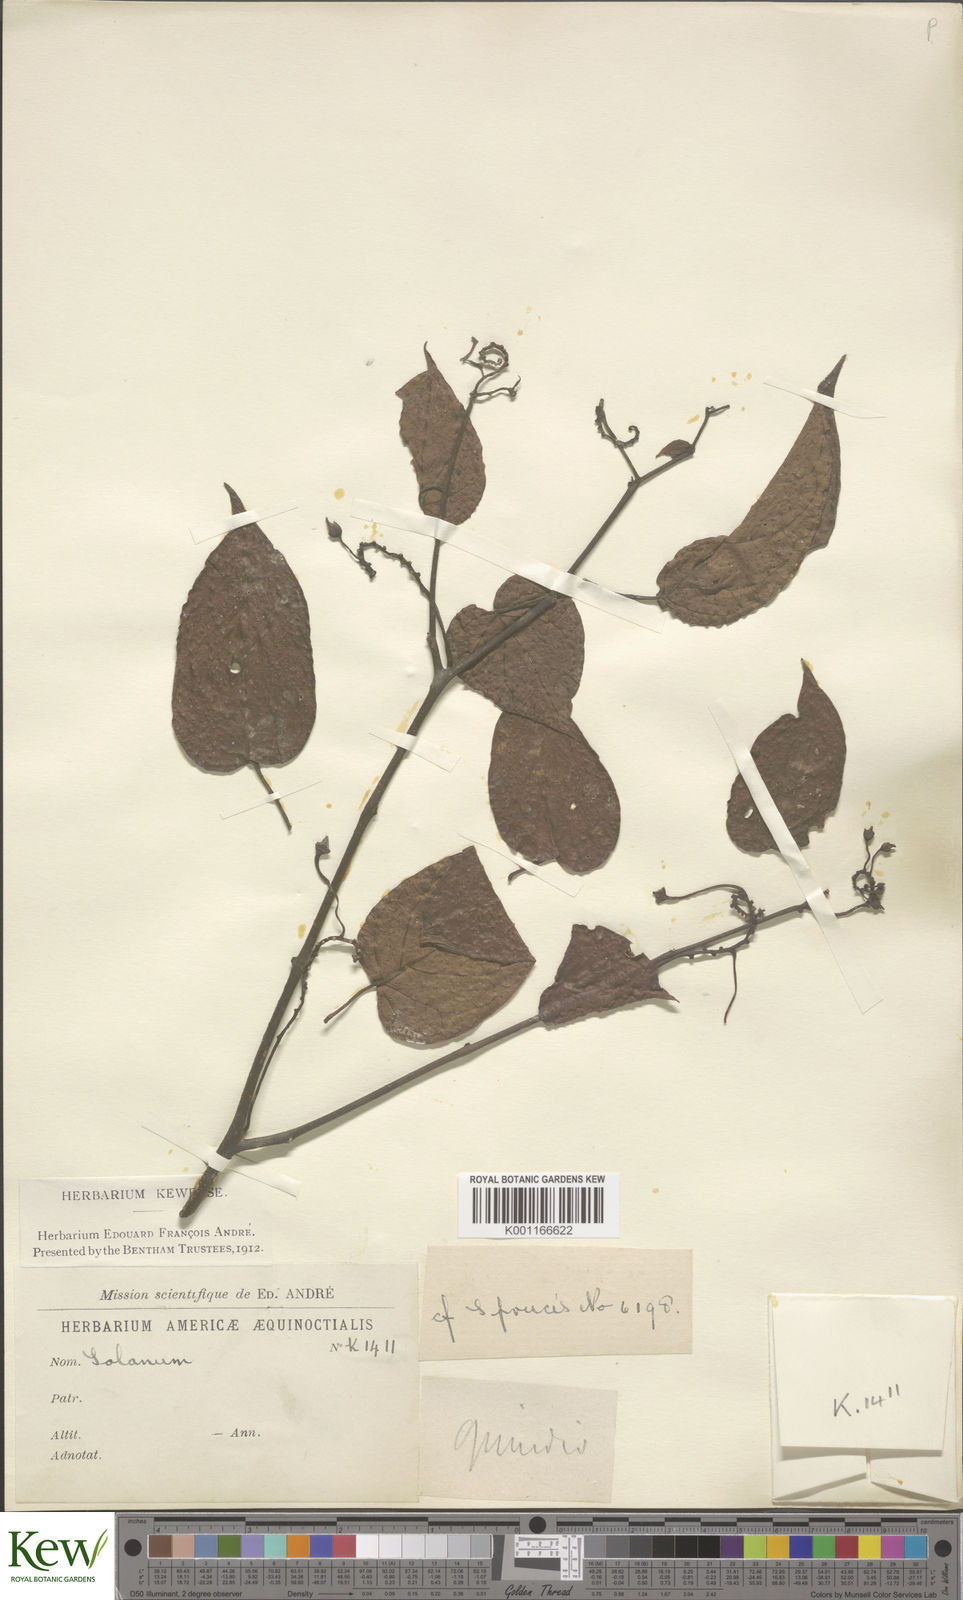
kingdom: Plantae
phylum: Tracheophyta
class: Magnoliopsida
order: Solanales
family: Solanaceae
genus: Solanum
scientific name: Solanum
